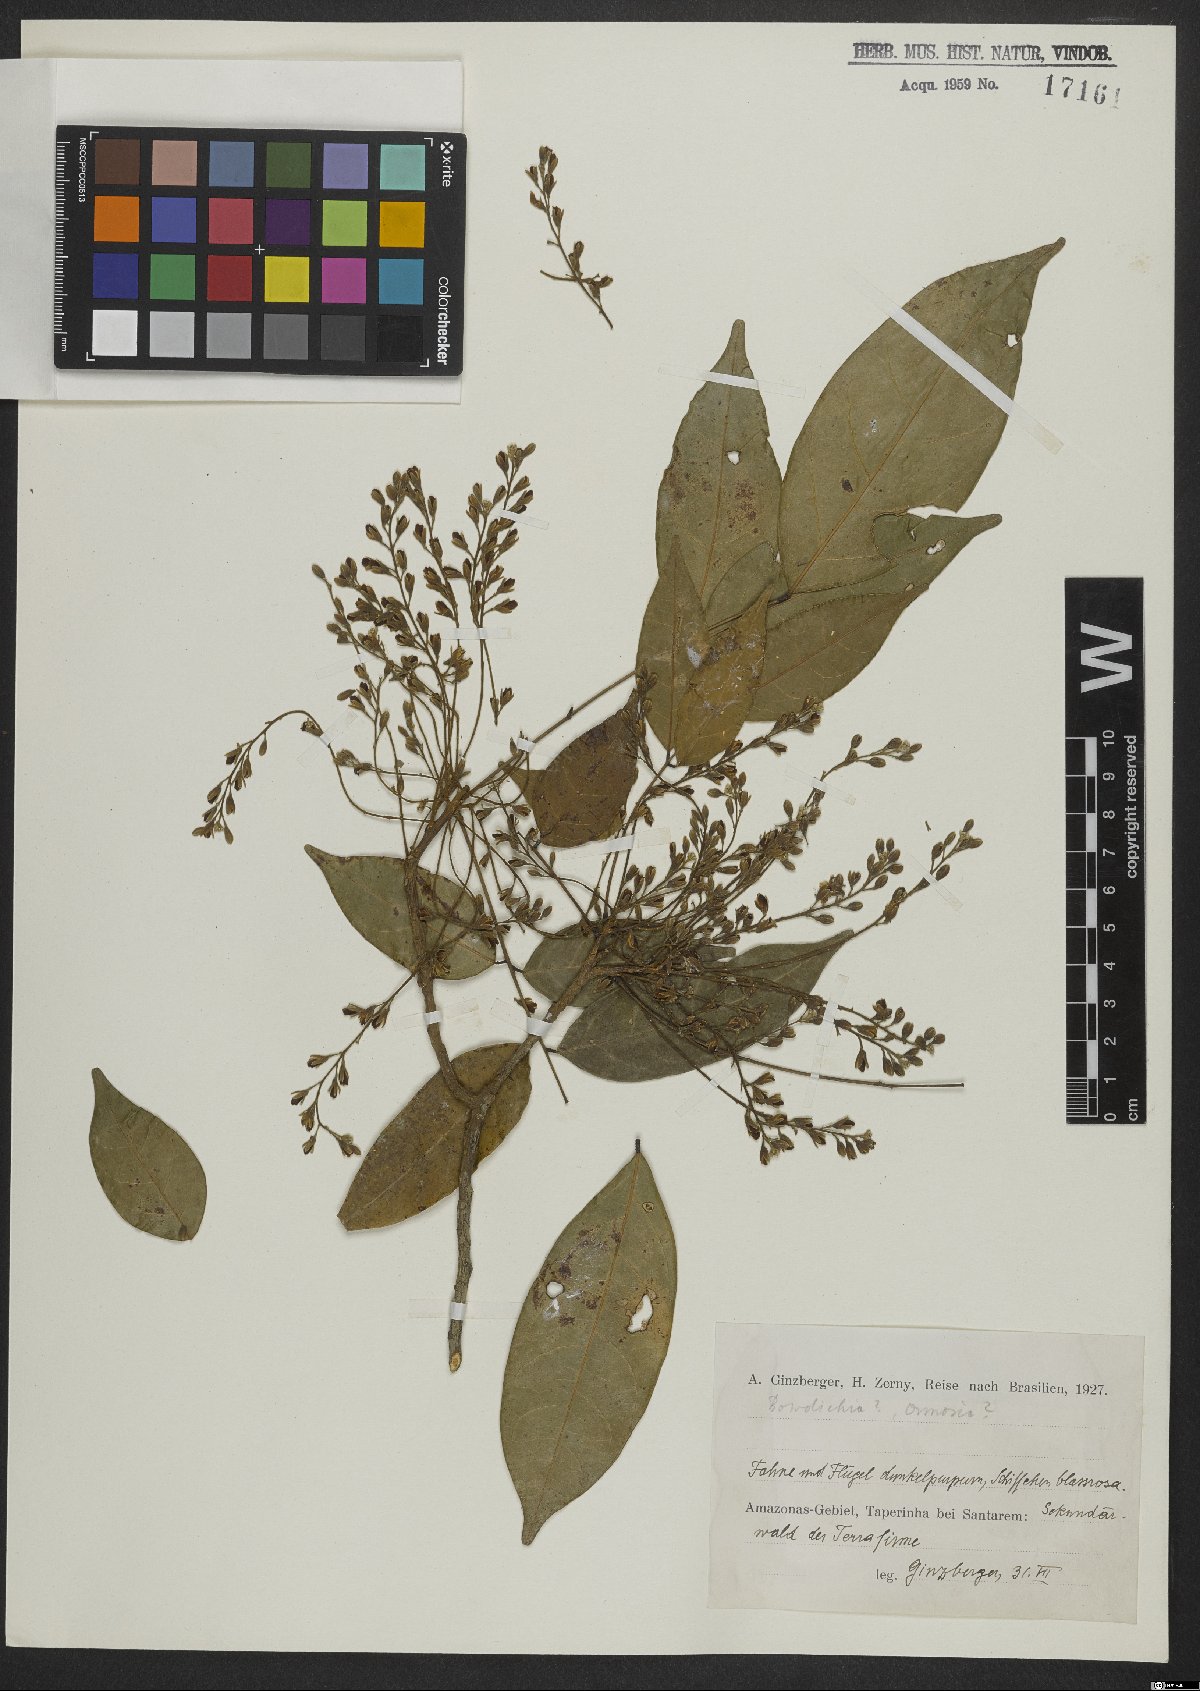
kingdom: Plantae
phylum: Tracheophyta
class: Magnoliopsida
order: Fabales
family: Fabaceae
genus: Bowdichia
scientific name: Bowdichia
